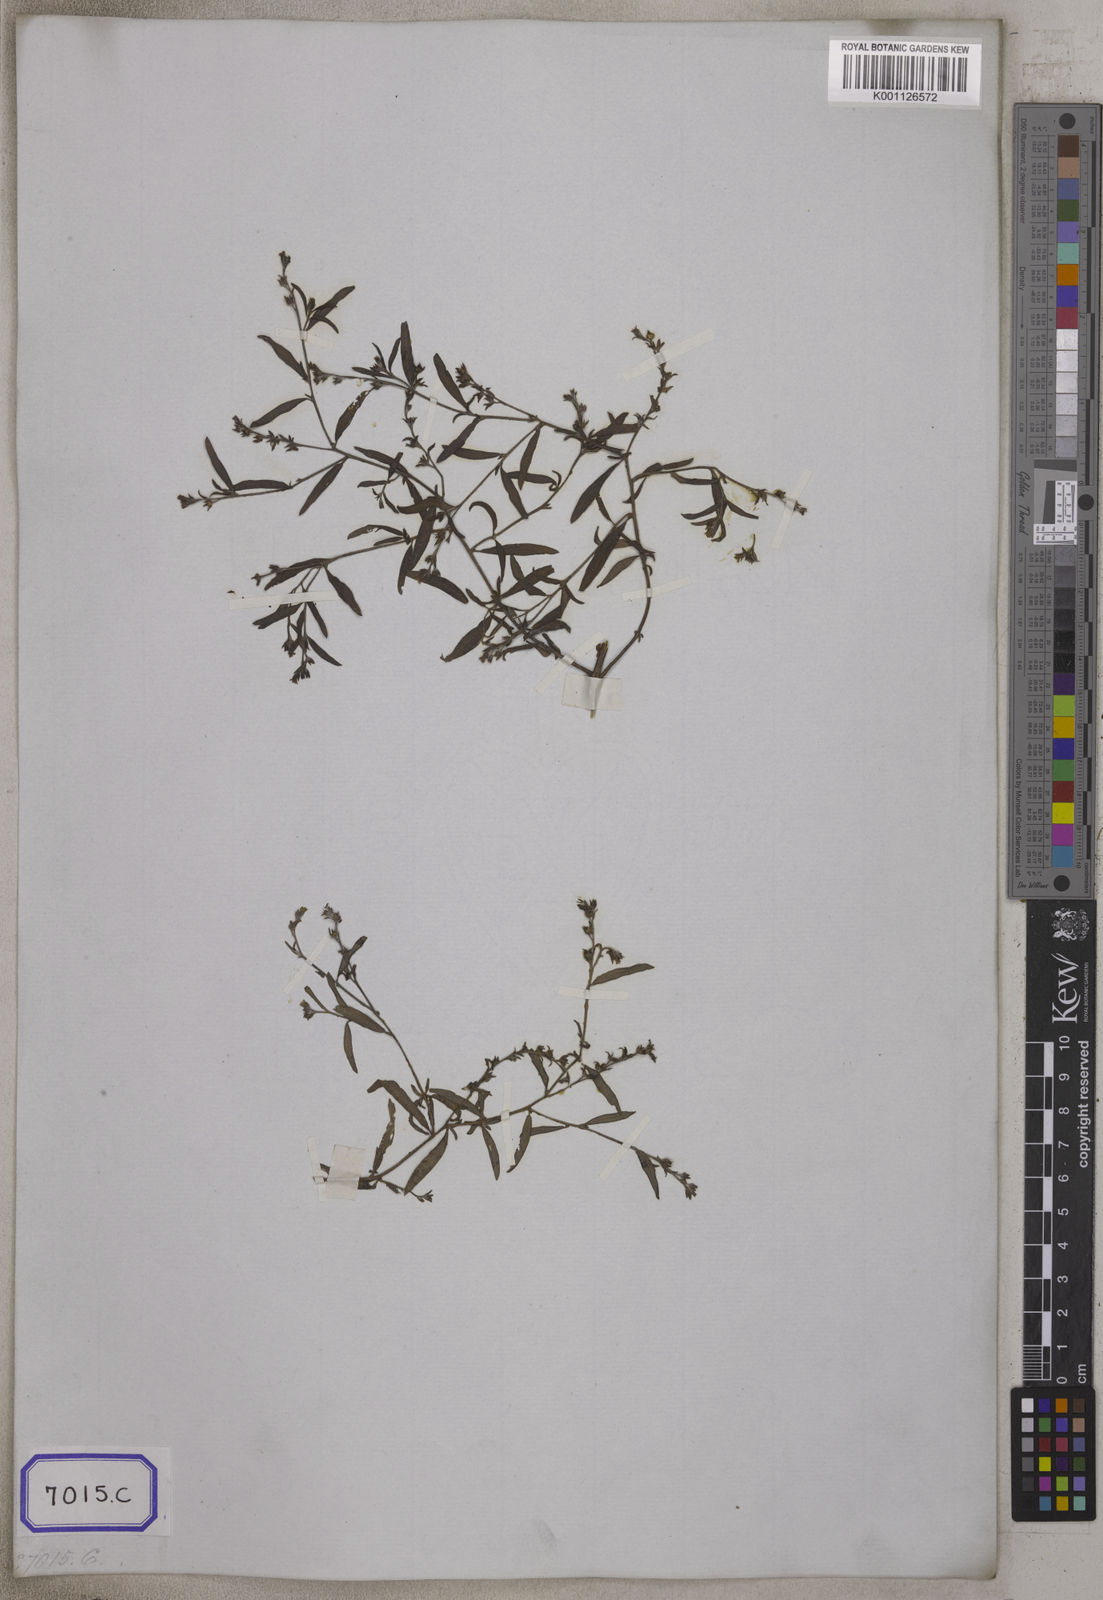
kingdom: Plantae
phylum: Tracheophyta
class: Magnoliopsida
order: Boraginales
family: Heliotropiaceae
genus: Euploca
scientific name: Euploca bracteata
